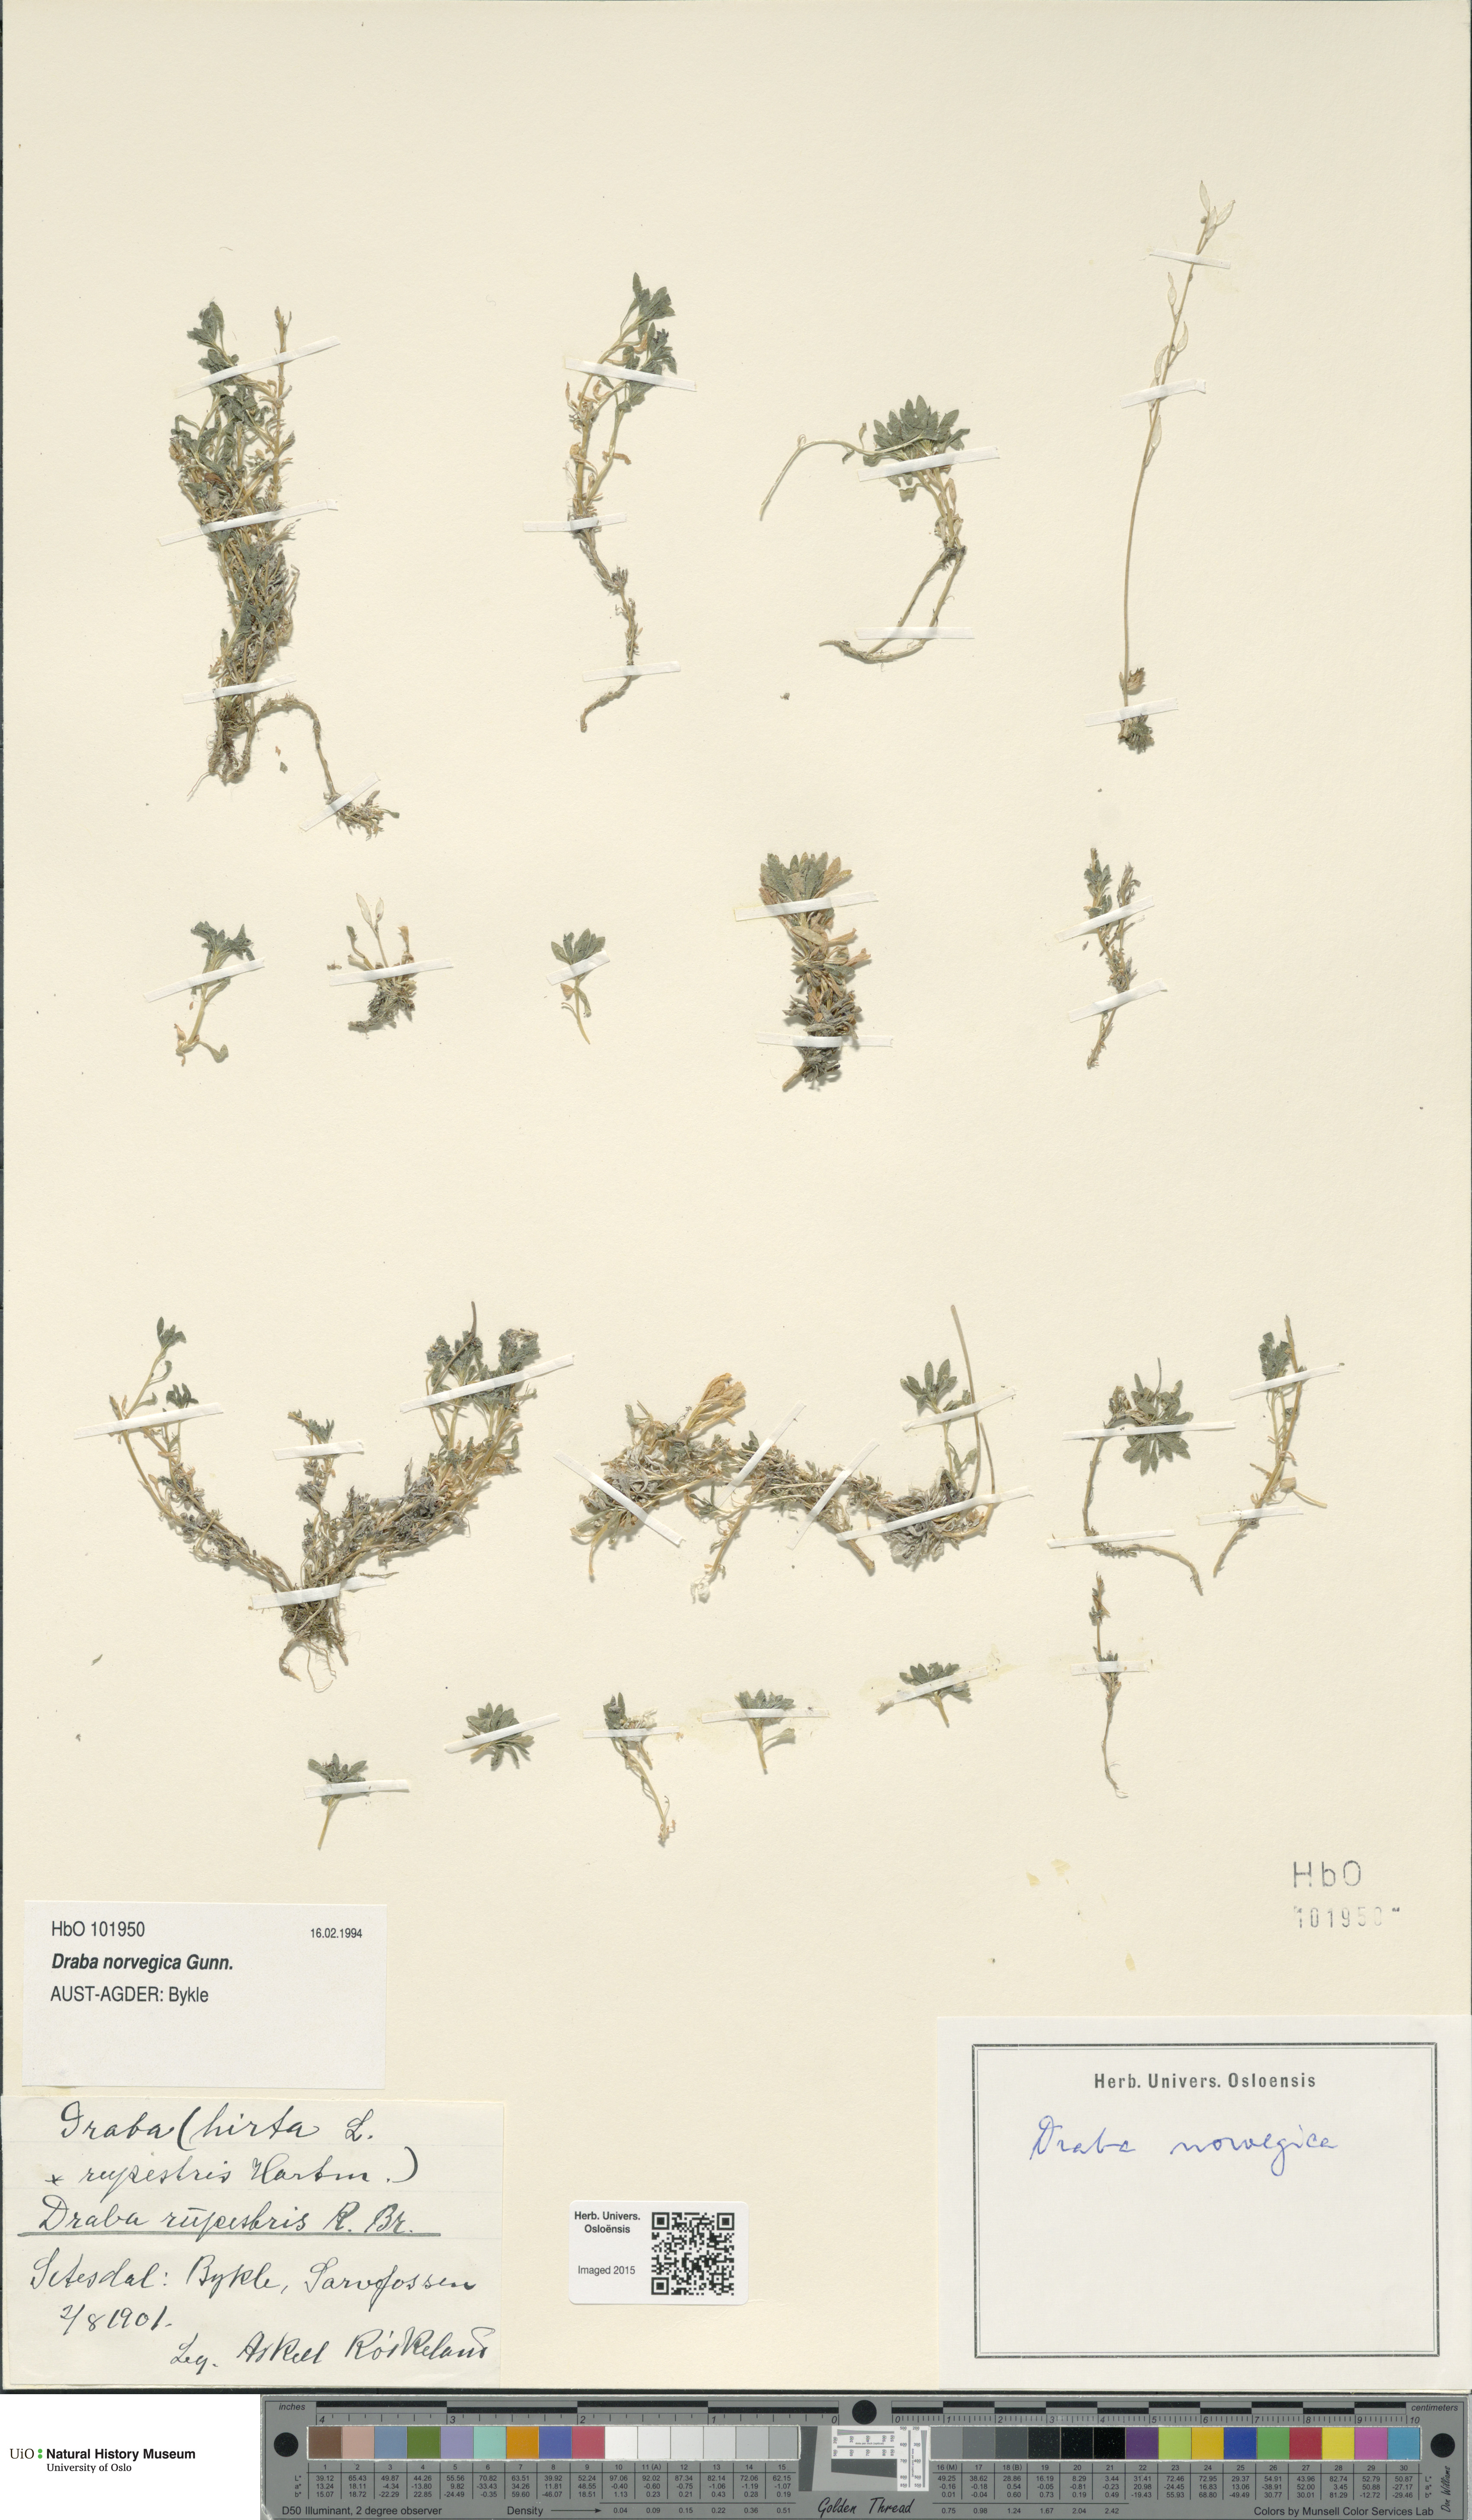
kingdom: Plantae
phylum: Tracheophyta
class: Magnoliopsida
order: Brassicales
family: Brassicaceae
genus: Draba
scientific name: Draba norvegica
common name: Rock whitlowgrass
